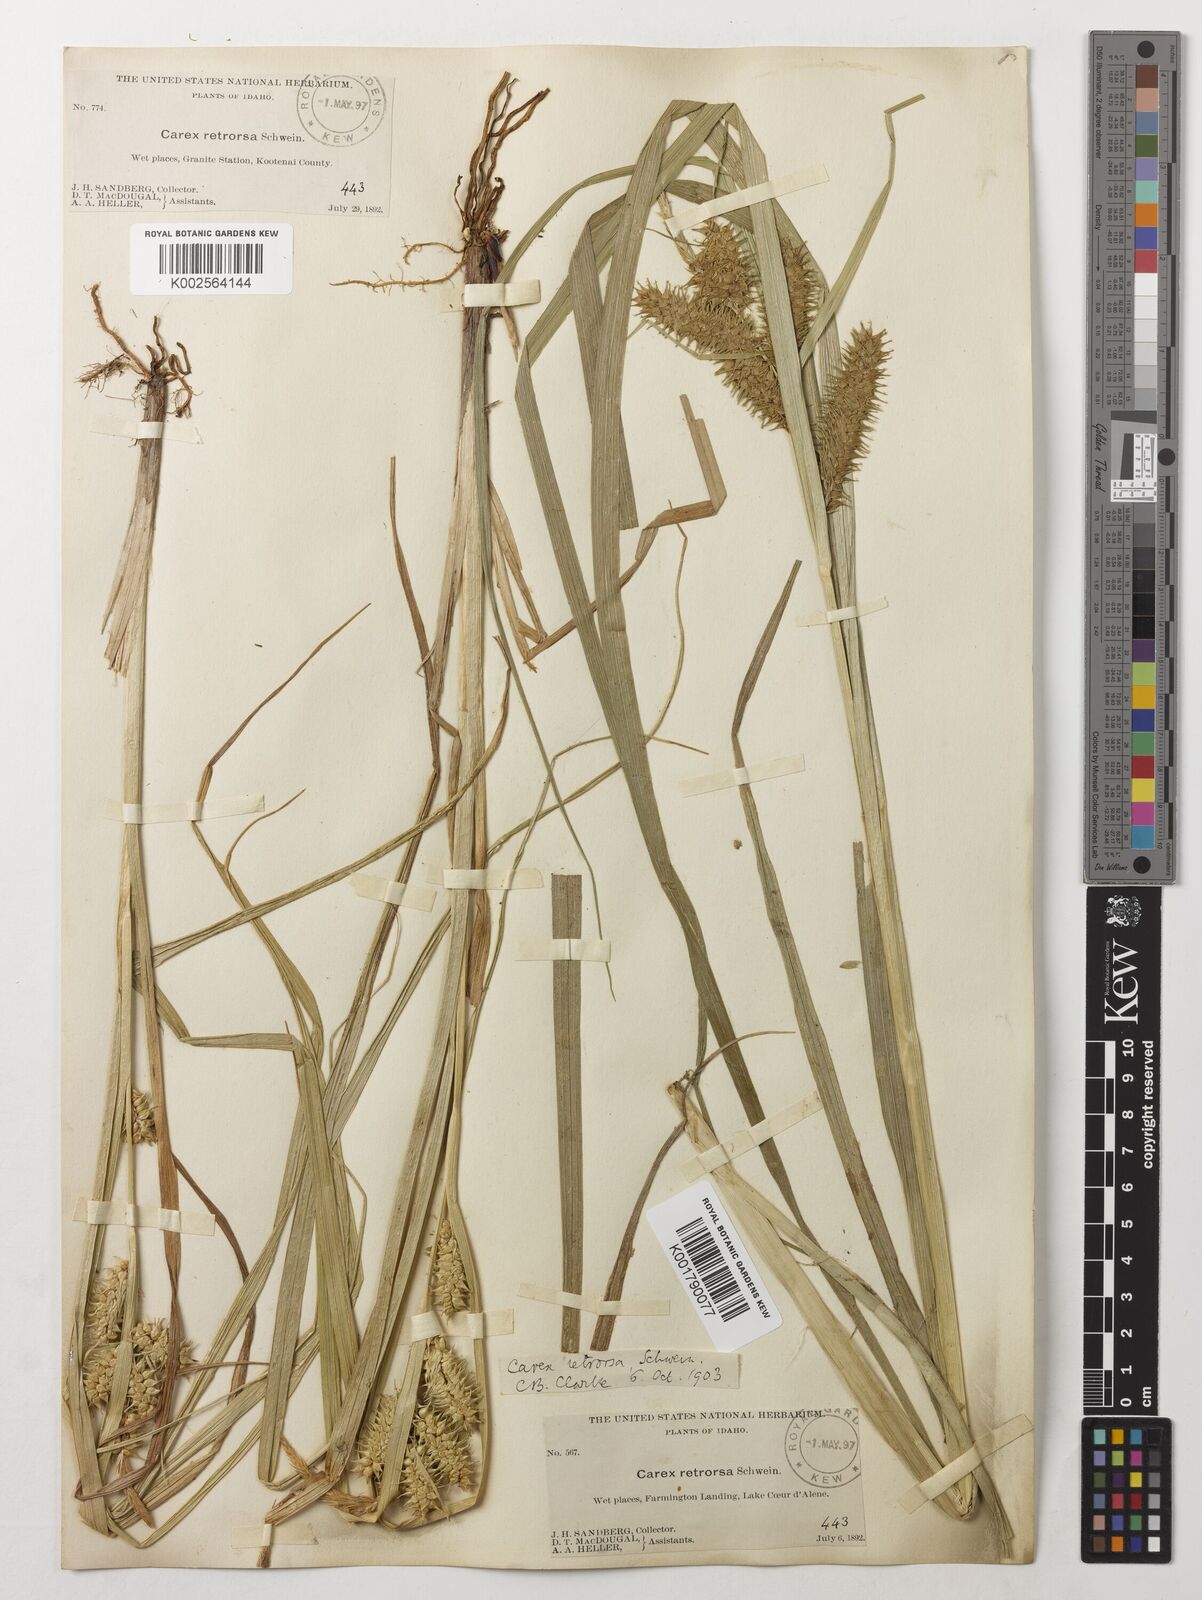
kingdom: Plantae
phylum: Tracheophyta
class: Liliopsida
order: Poales
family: Cyperaceae
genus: Carex
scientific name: Carex retrorsa
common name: Knot-sheath sedge
